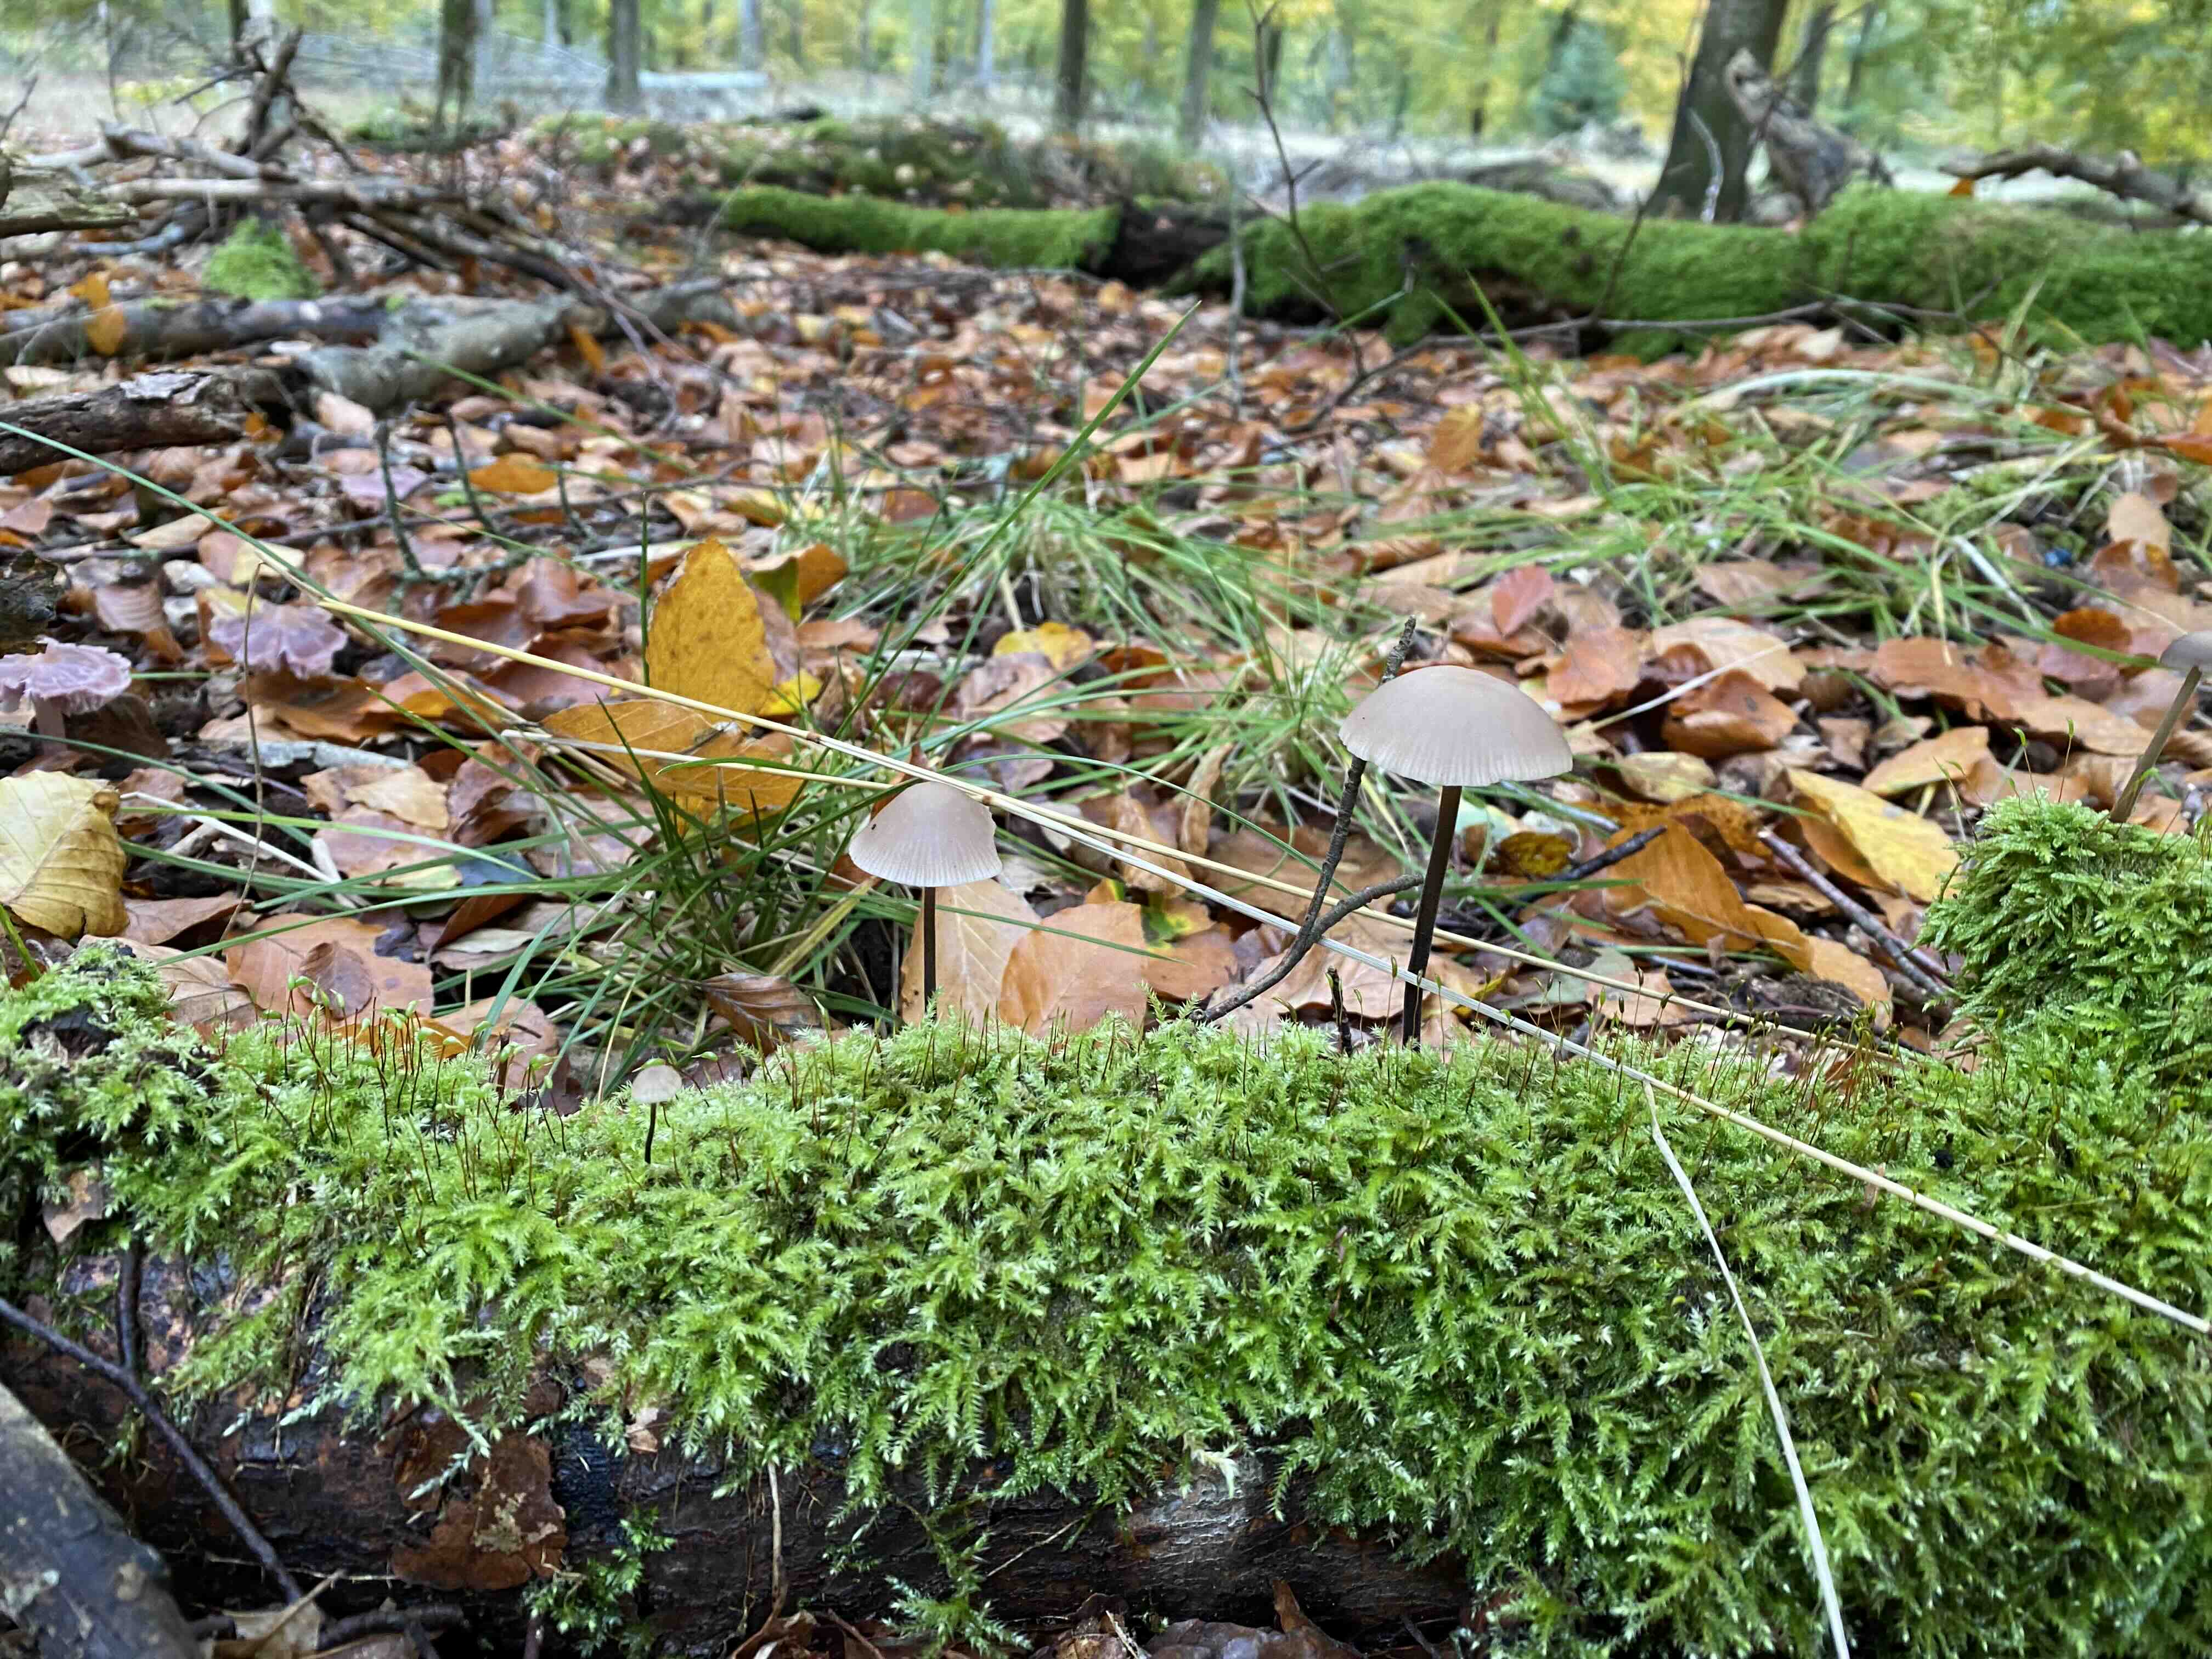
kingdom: Fungi
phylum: Basidiomycota
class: Agaricomycetes
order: Agaricales
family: Omphalotaceae
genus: Mycetinis
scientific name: Mycetinis alliaceus
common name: stor løghat
